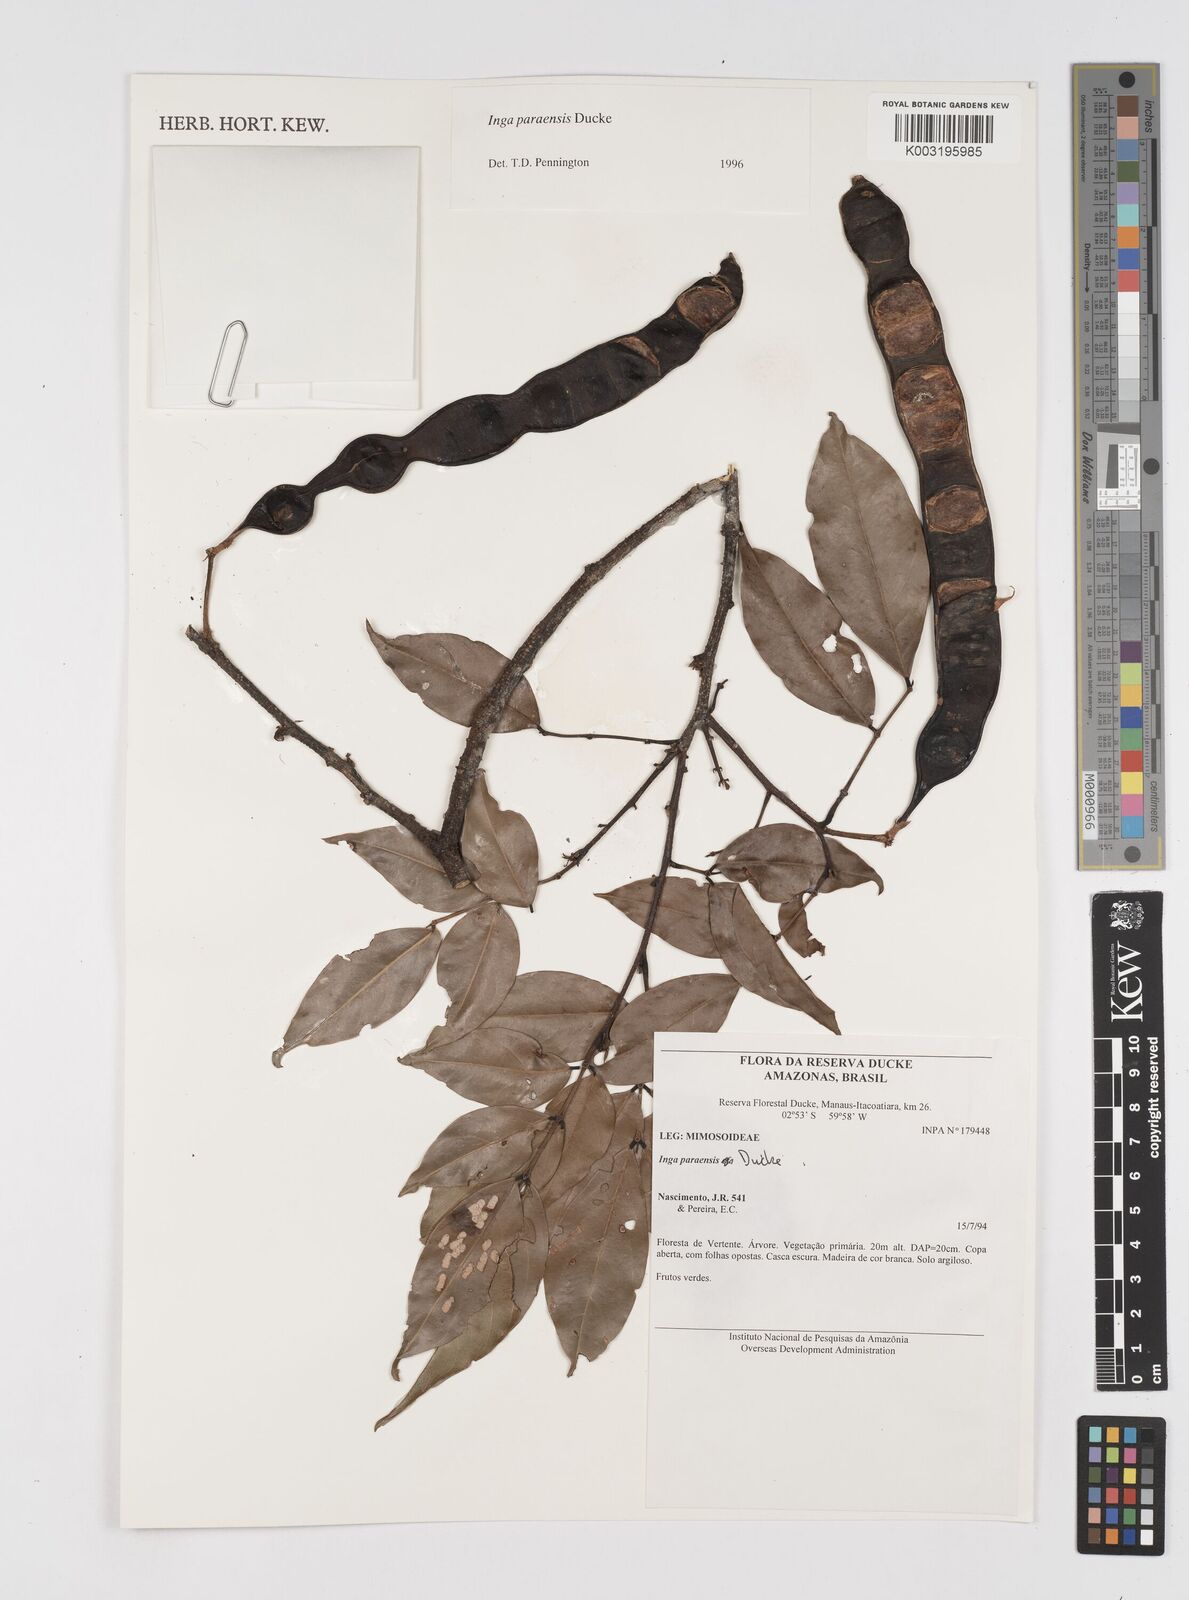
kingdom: Plantae
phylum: Tracheophyta
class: Magnoliopsida
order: Fabales
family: Fabaceae
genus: Inga
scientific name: Inga paraensis
